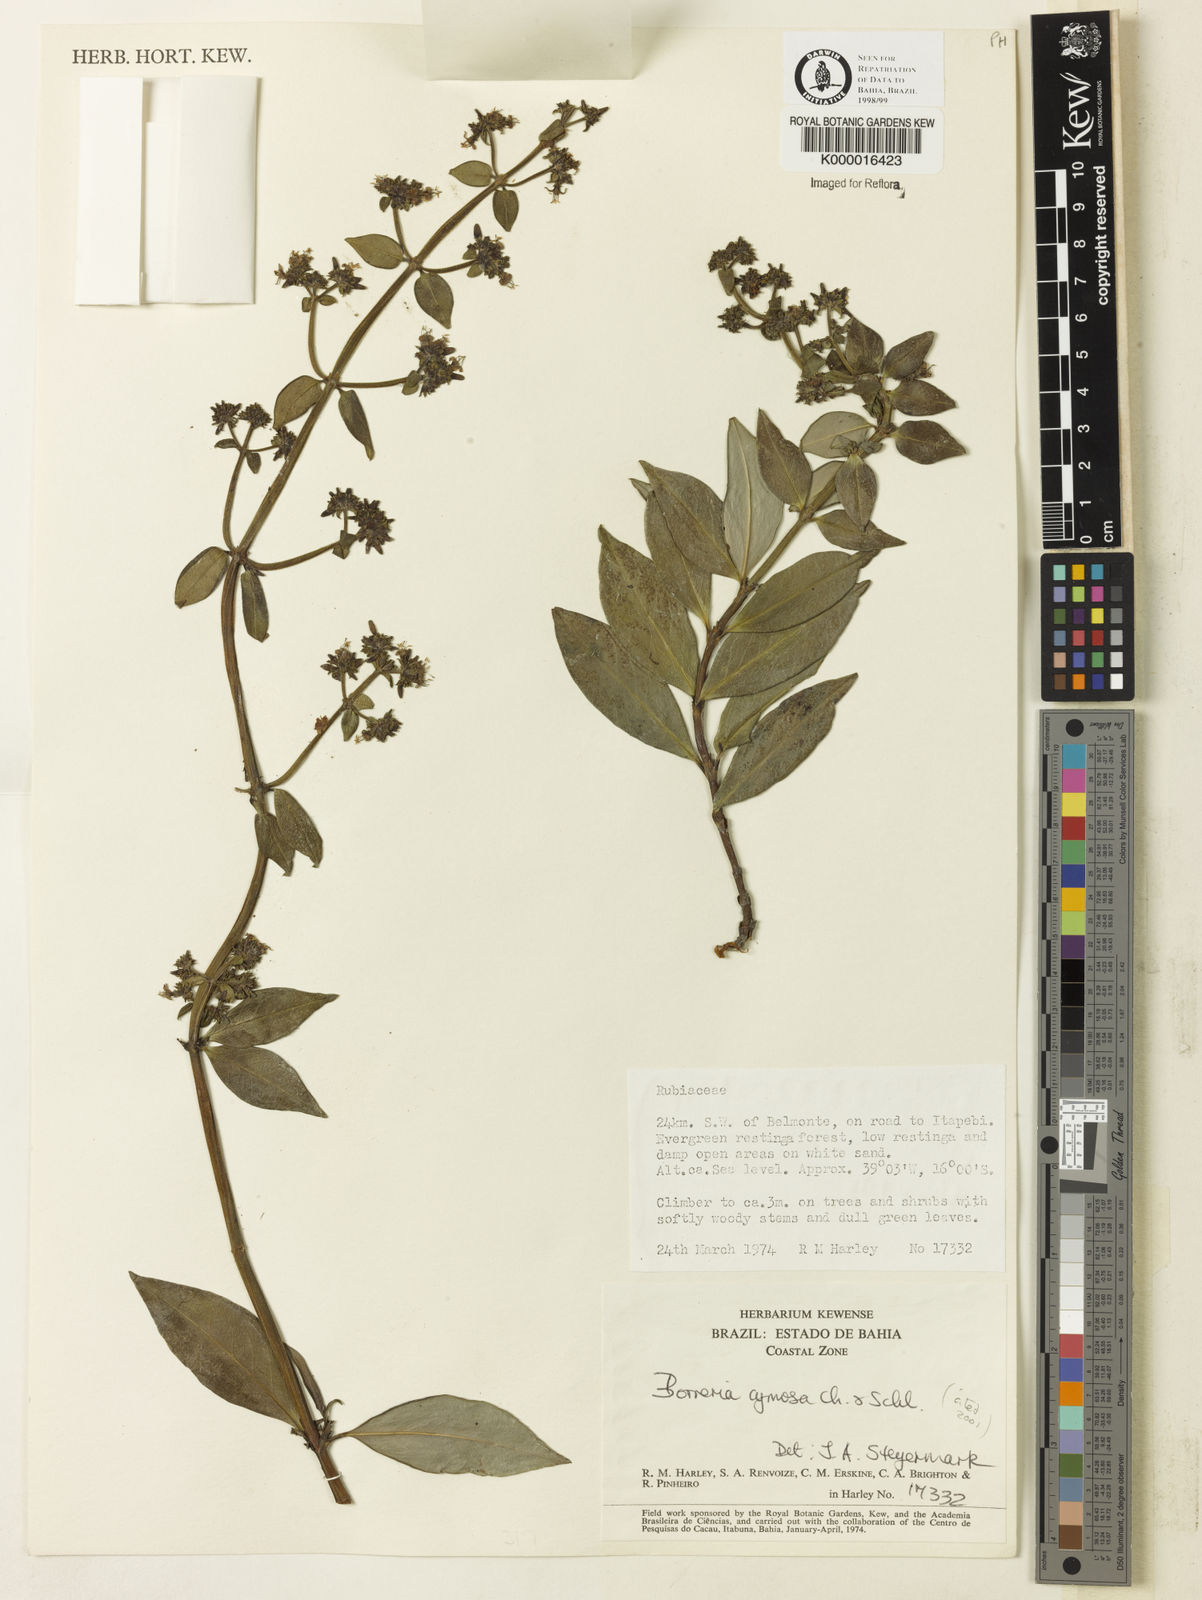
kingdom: Plantae
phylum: Tracheophyta
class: Magnoliopsida
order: Gentianales
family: Rubiaceae
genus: Denscantia
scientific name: Denscantia cymosa
